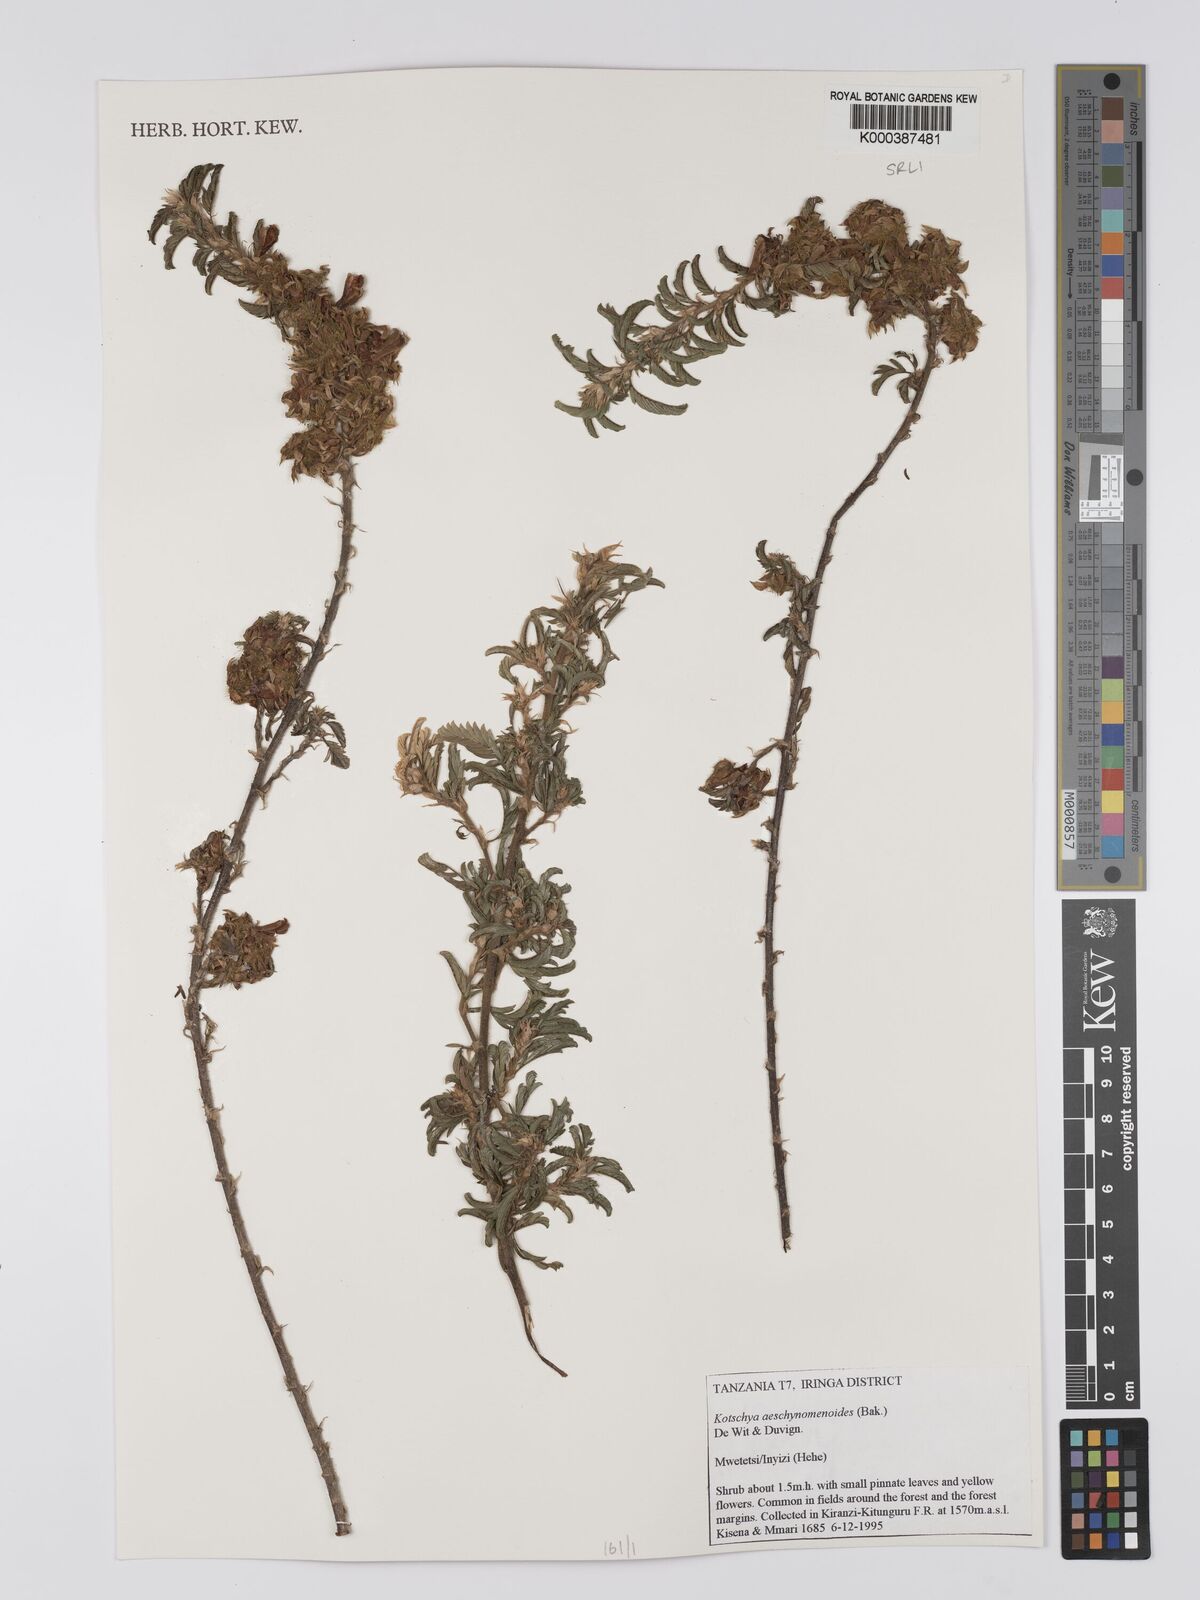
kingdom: Plantae
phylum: Tracheophyta
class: Magnoliopsida
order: Fabales
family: Fabaceae
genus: Kotschya
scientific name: Kotschya aeschynomenoides
